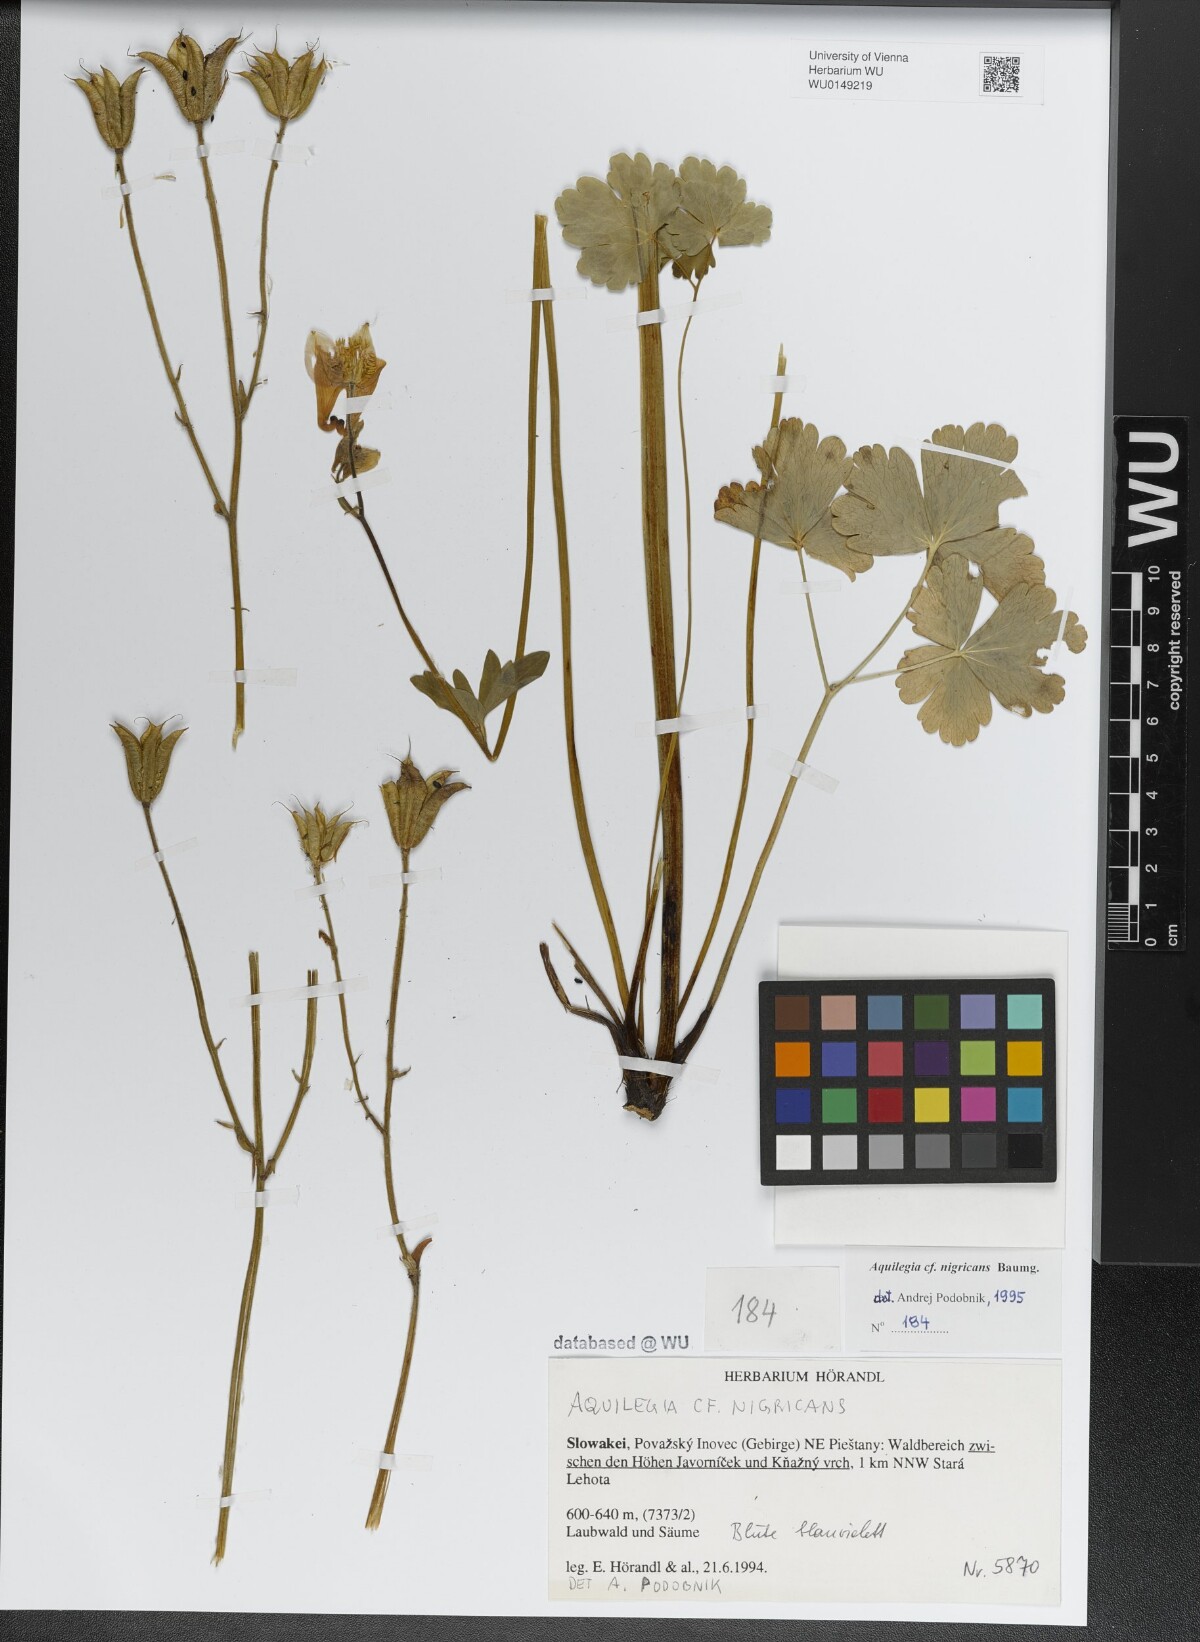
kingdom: Plantae
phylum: Tracheophyta
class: Magnoliopsida
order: Ranunculales
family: Ranunculaceae
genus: Aquilegia
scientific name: Aquilegia nigricans
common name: Bulgarian columbine
